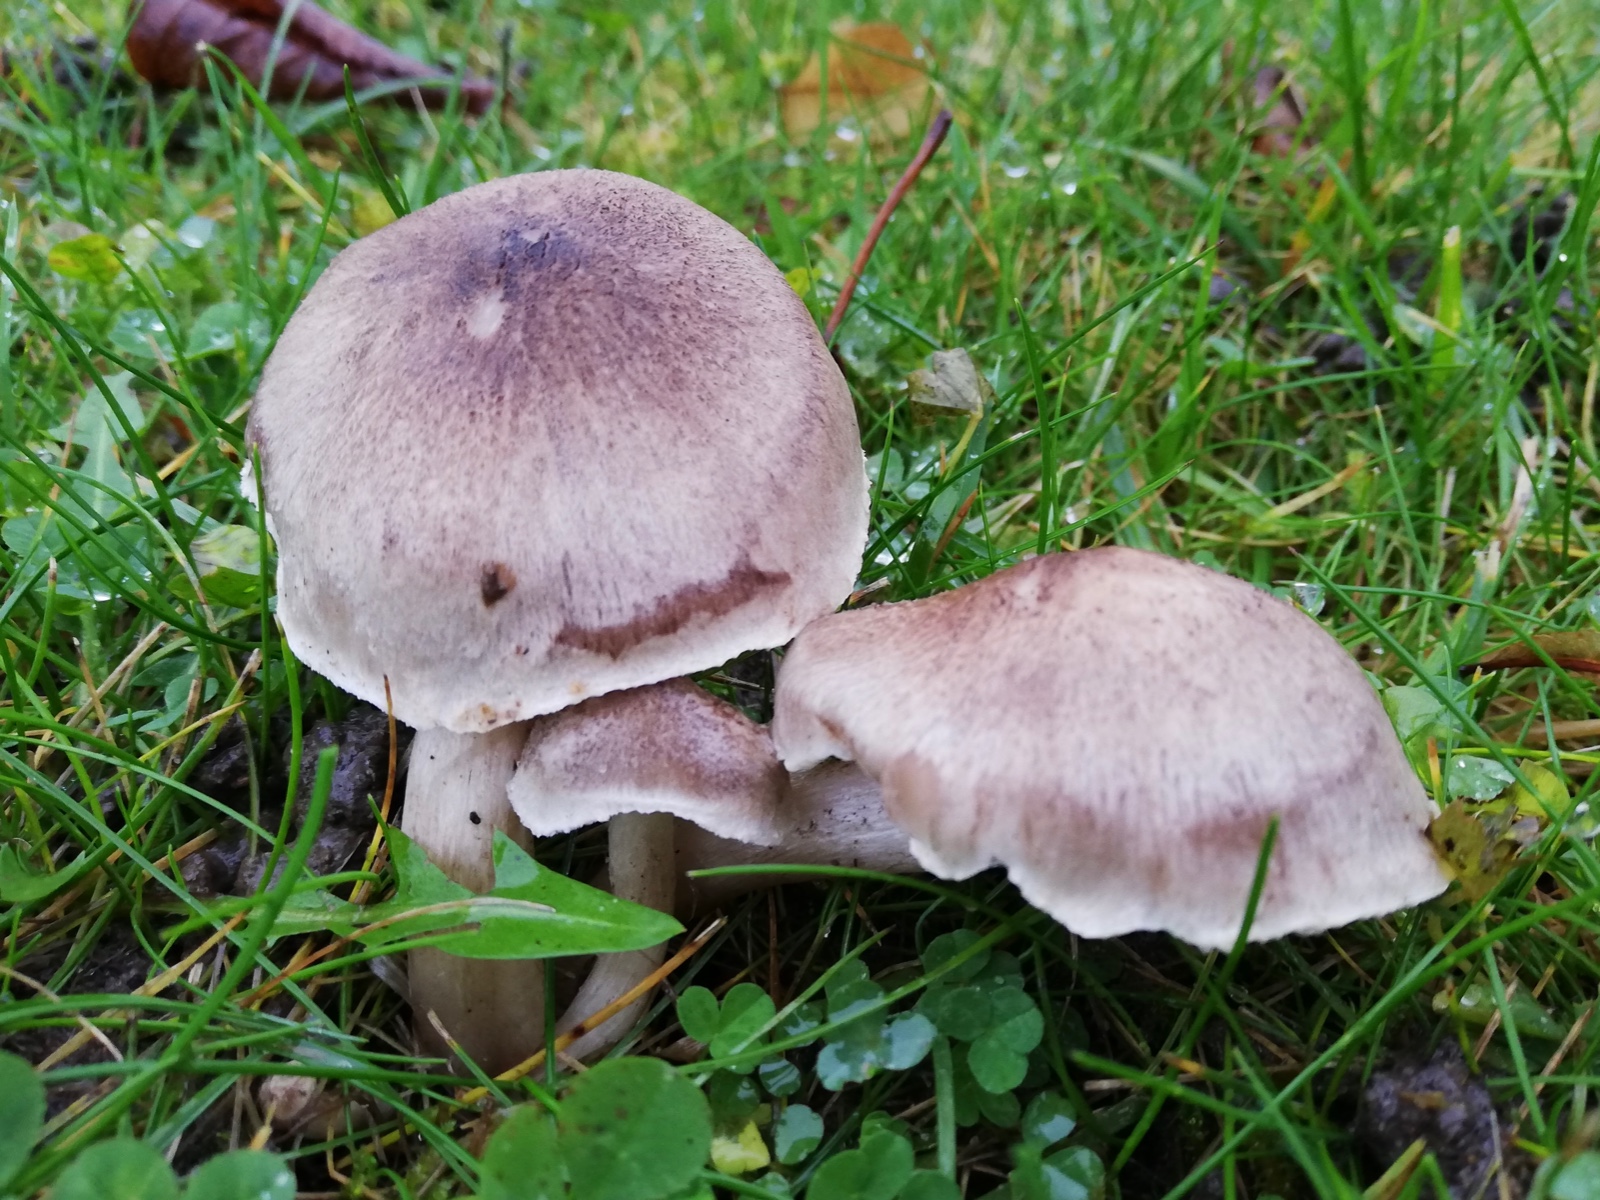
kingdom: Fungi
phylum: Basidiomycota
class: Agaricomycetes
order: Agaricales
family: Tricholomataceae
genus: Tricholoma
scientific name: Tricholoma scalpturatum
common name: gulplettet ridderhat
